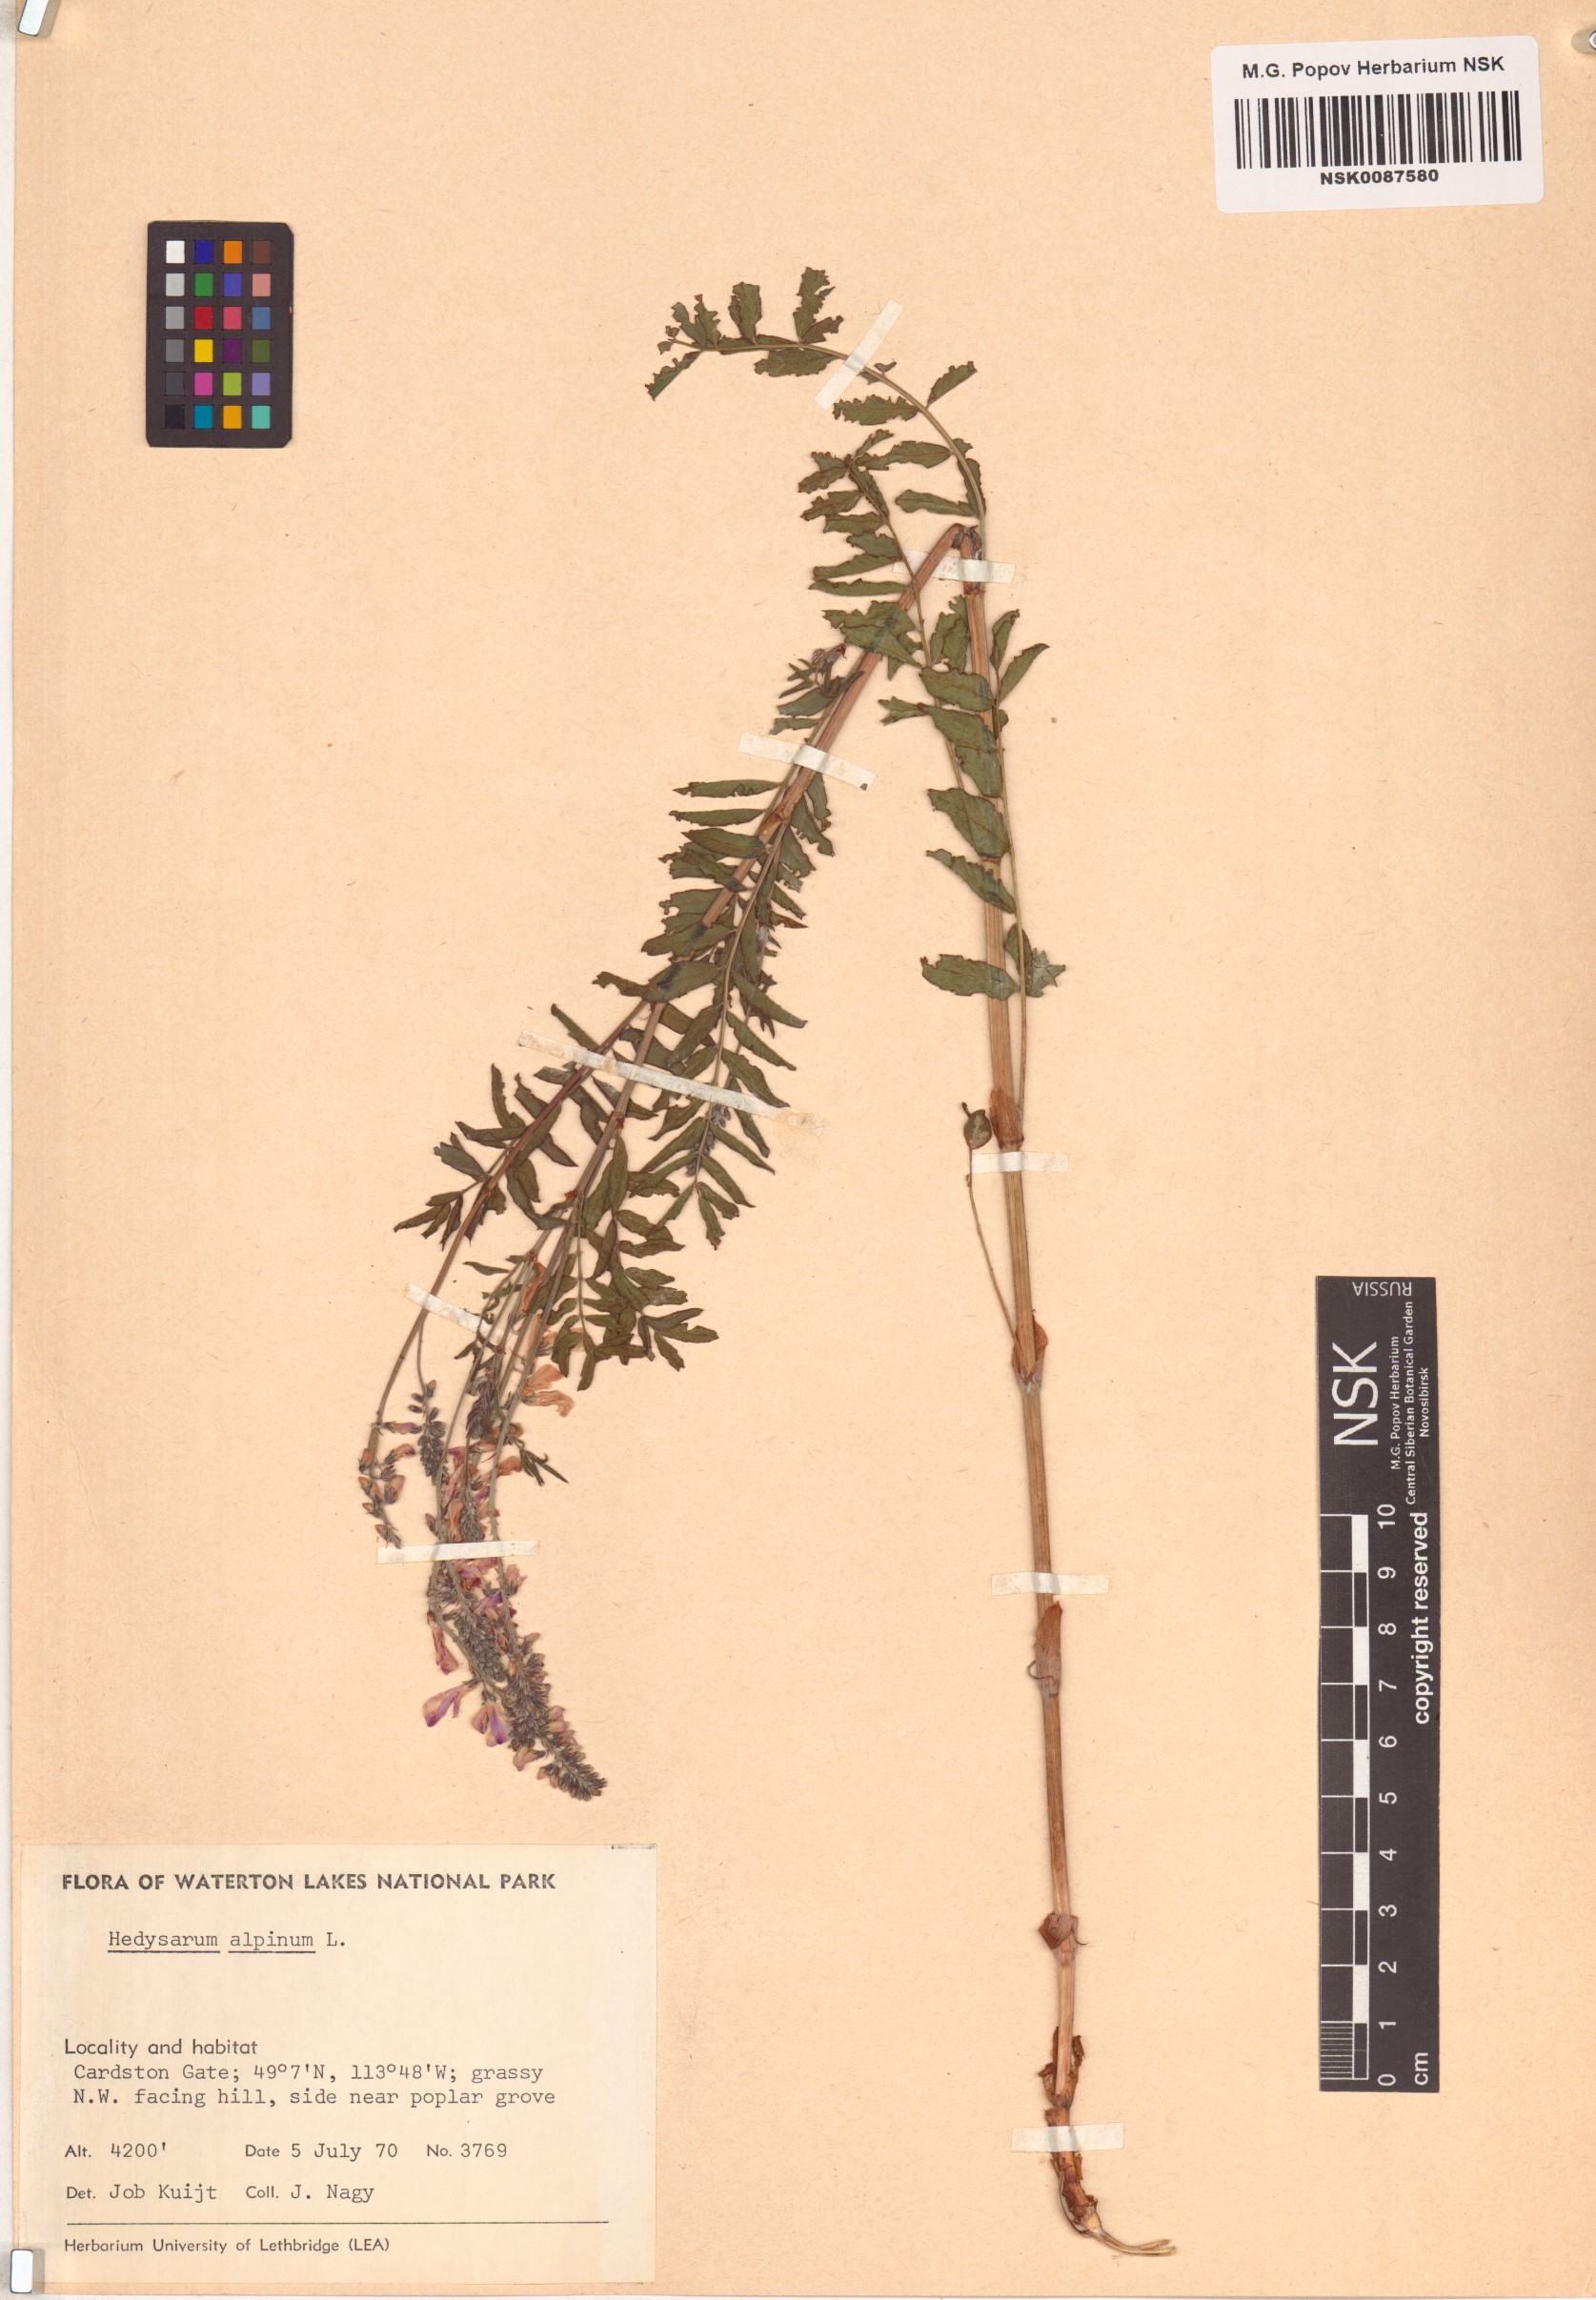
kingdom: Plantae
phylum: Tracheophyta
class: Magnoliopsida
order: Fabales
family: Fabaceae
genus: Hedysarum
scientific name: Hedysarum alpinum
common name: Alpine sweet-vetch
